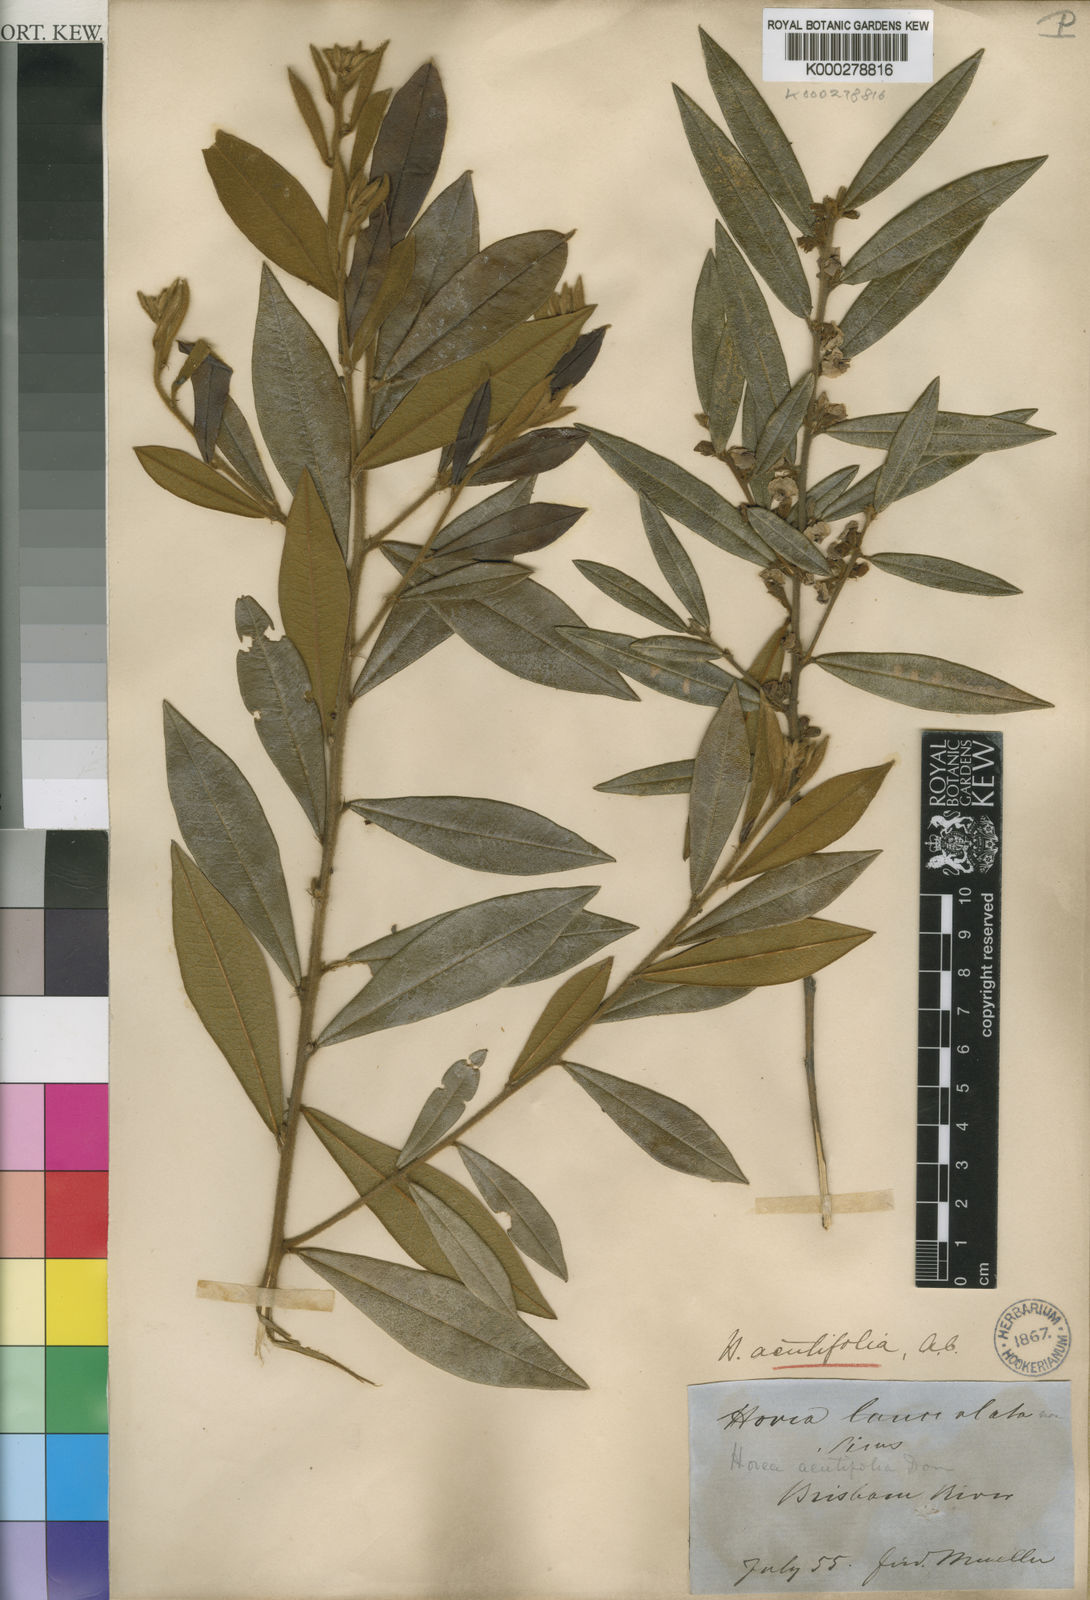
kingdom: Plantae
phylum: Tracheophyta
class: Magnoliopsida
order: Fabales
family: Fabaceae
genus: Hovea
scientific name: Hovea acutifolia
